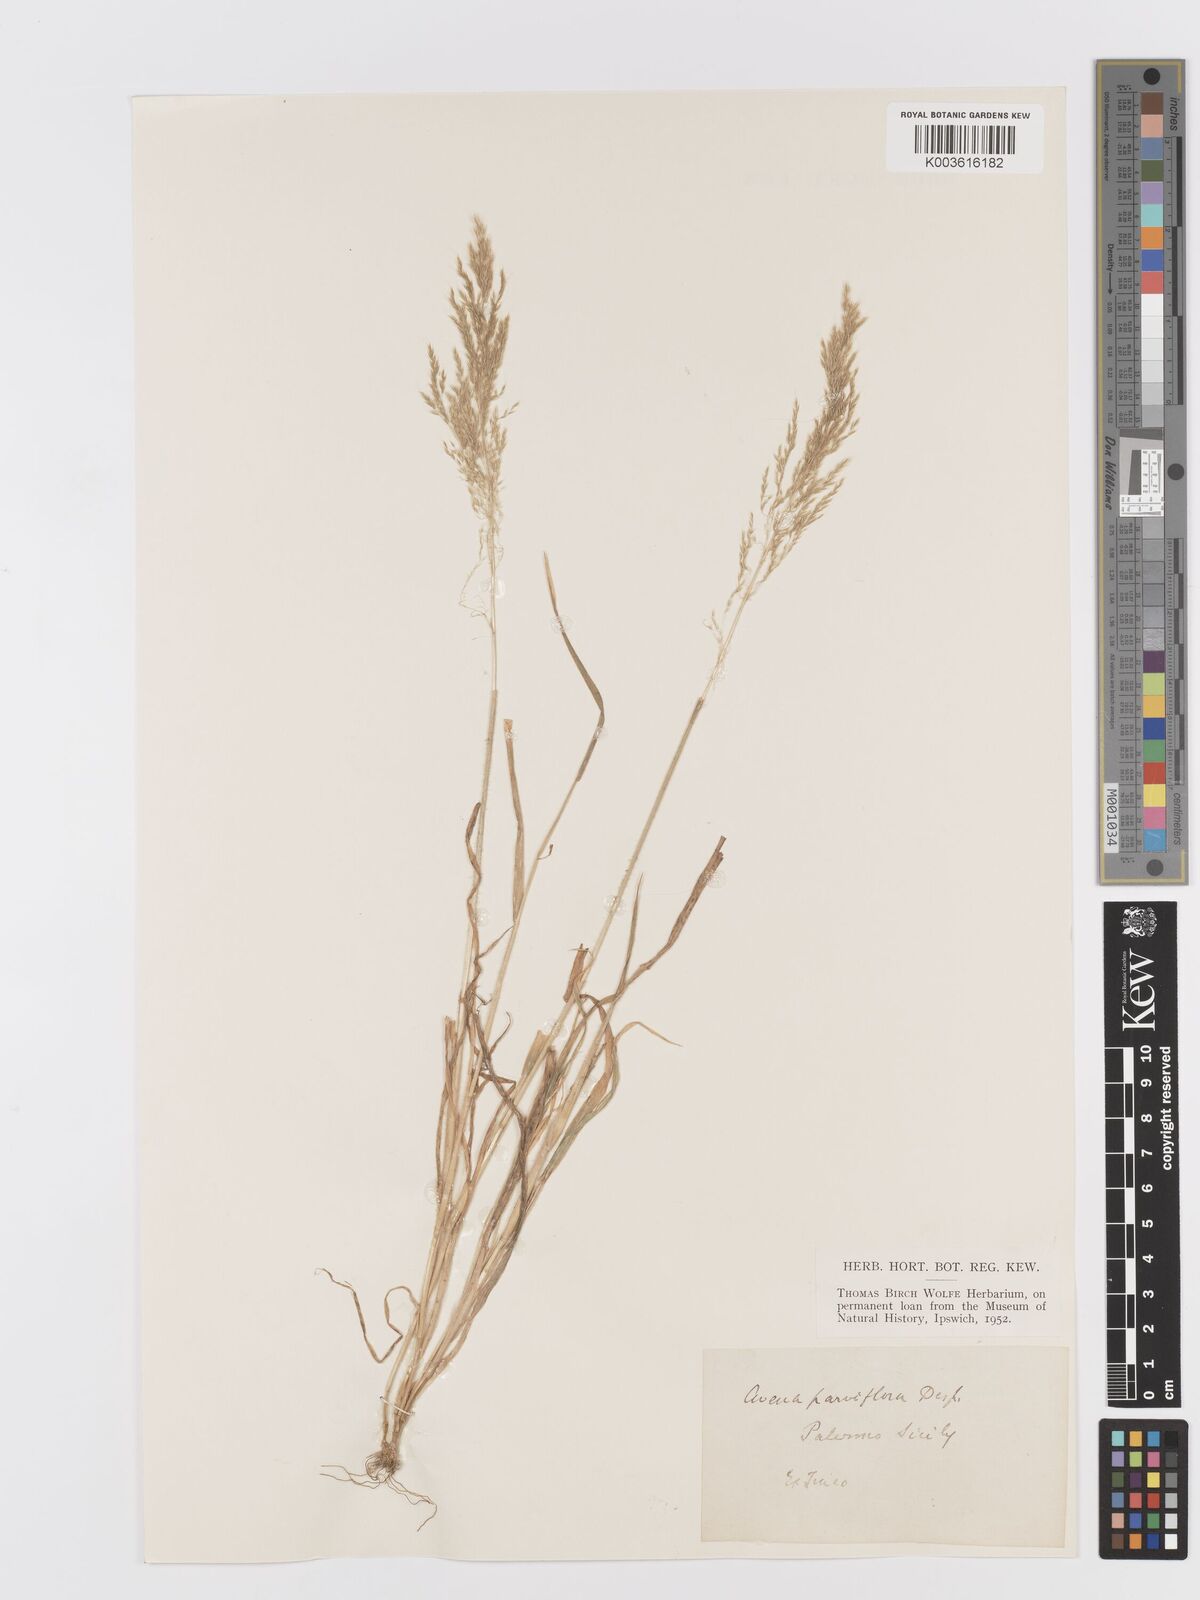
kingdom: Plantae
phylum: Tracheophyta
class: Liliopsida
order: Poales
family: Poaceae
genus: Trisetaria
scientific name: Trisetaria parviflora
